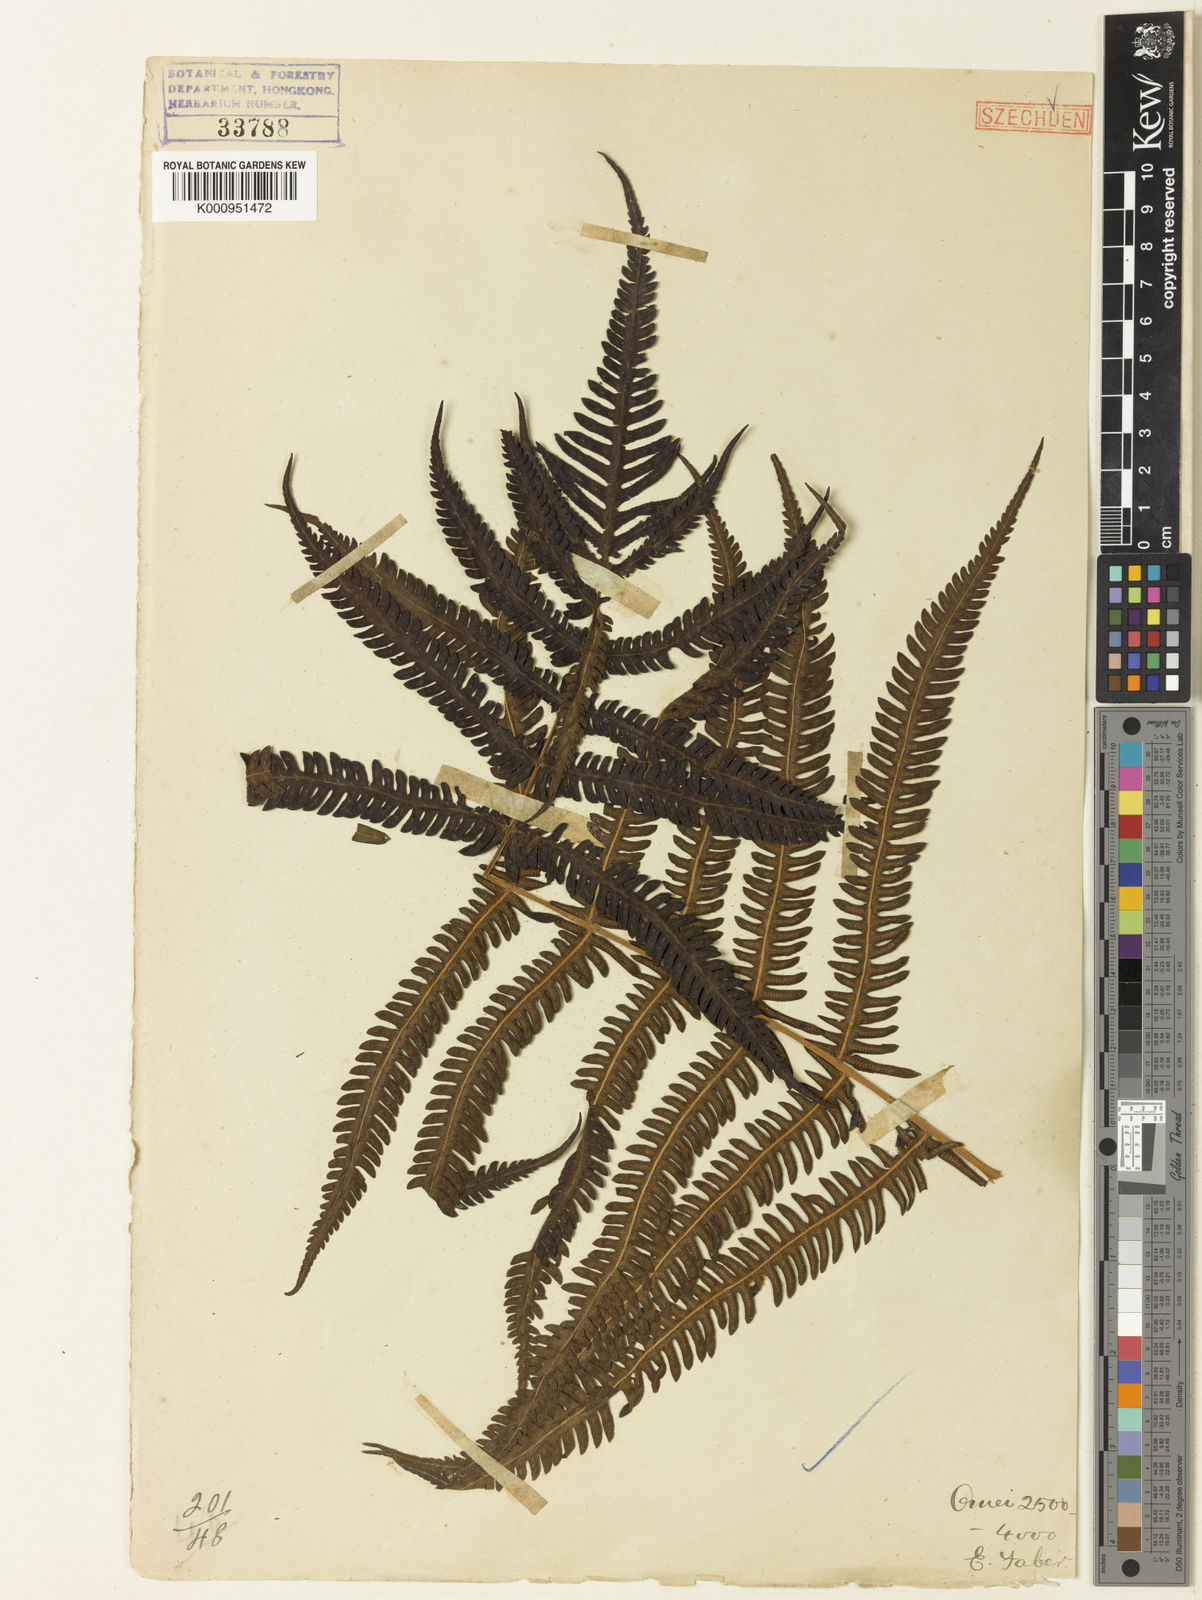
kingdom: Plantae
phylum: Tracheophyta
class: Polypodiopsida
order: Polypodiales
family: Thelypteridaceae
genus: Glaphyropteridopsis
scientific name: Glaphyropteridopsis erubescens
